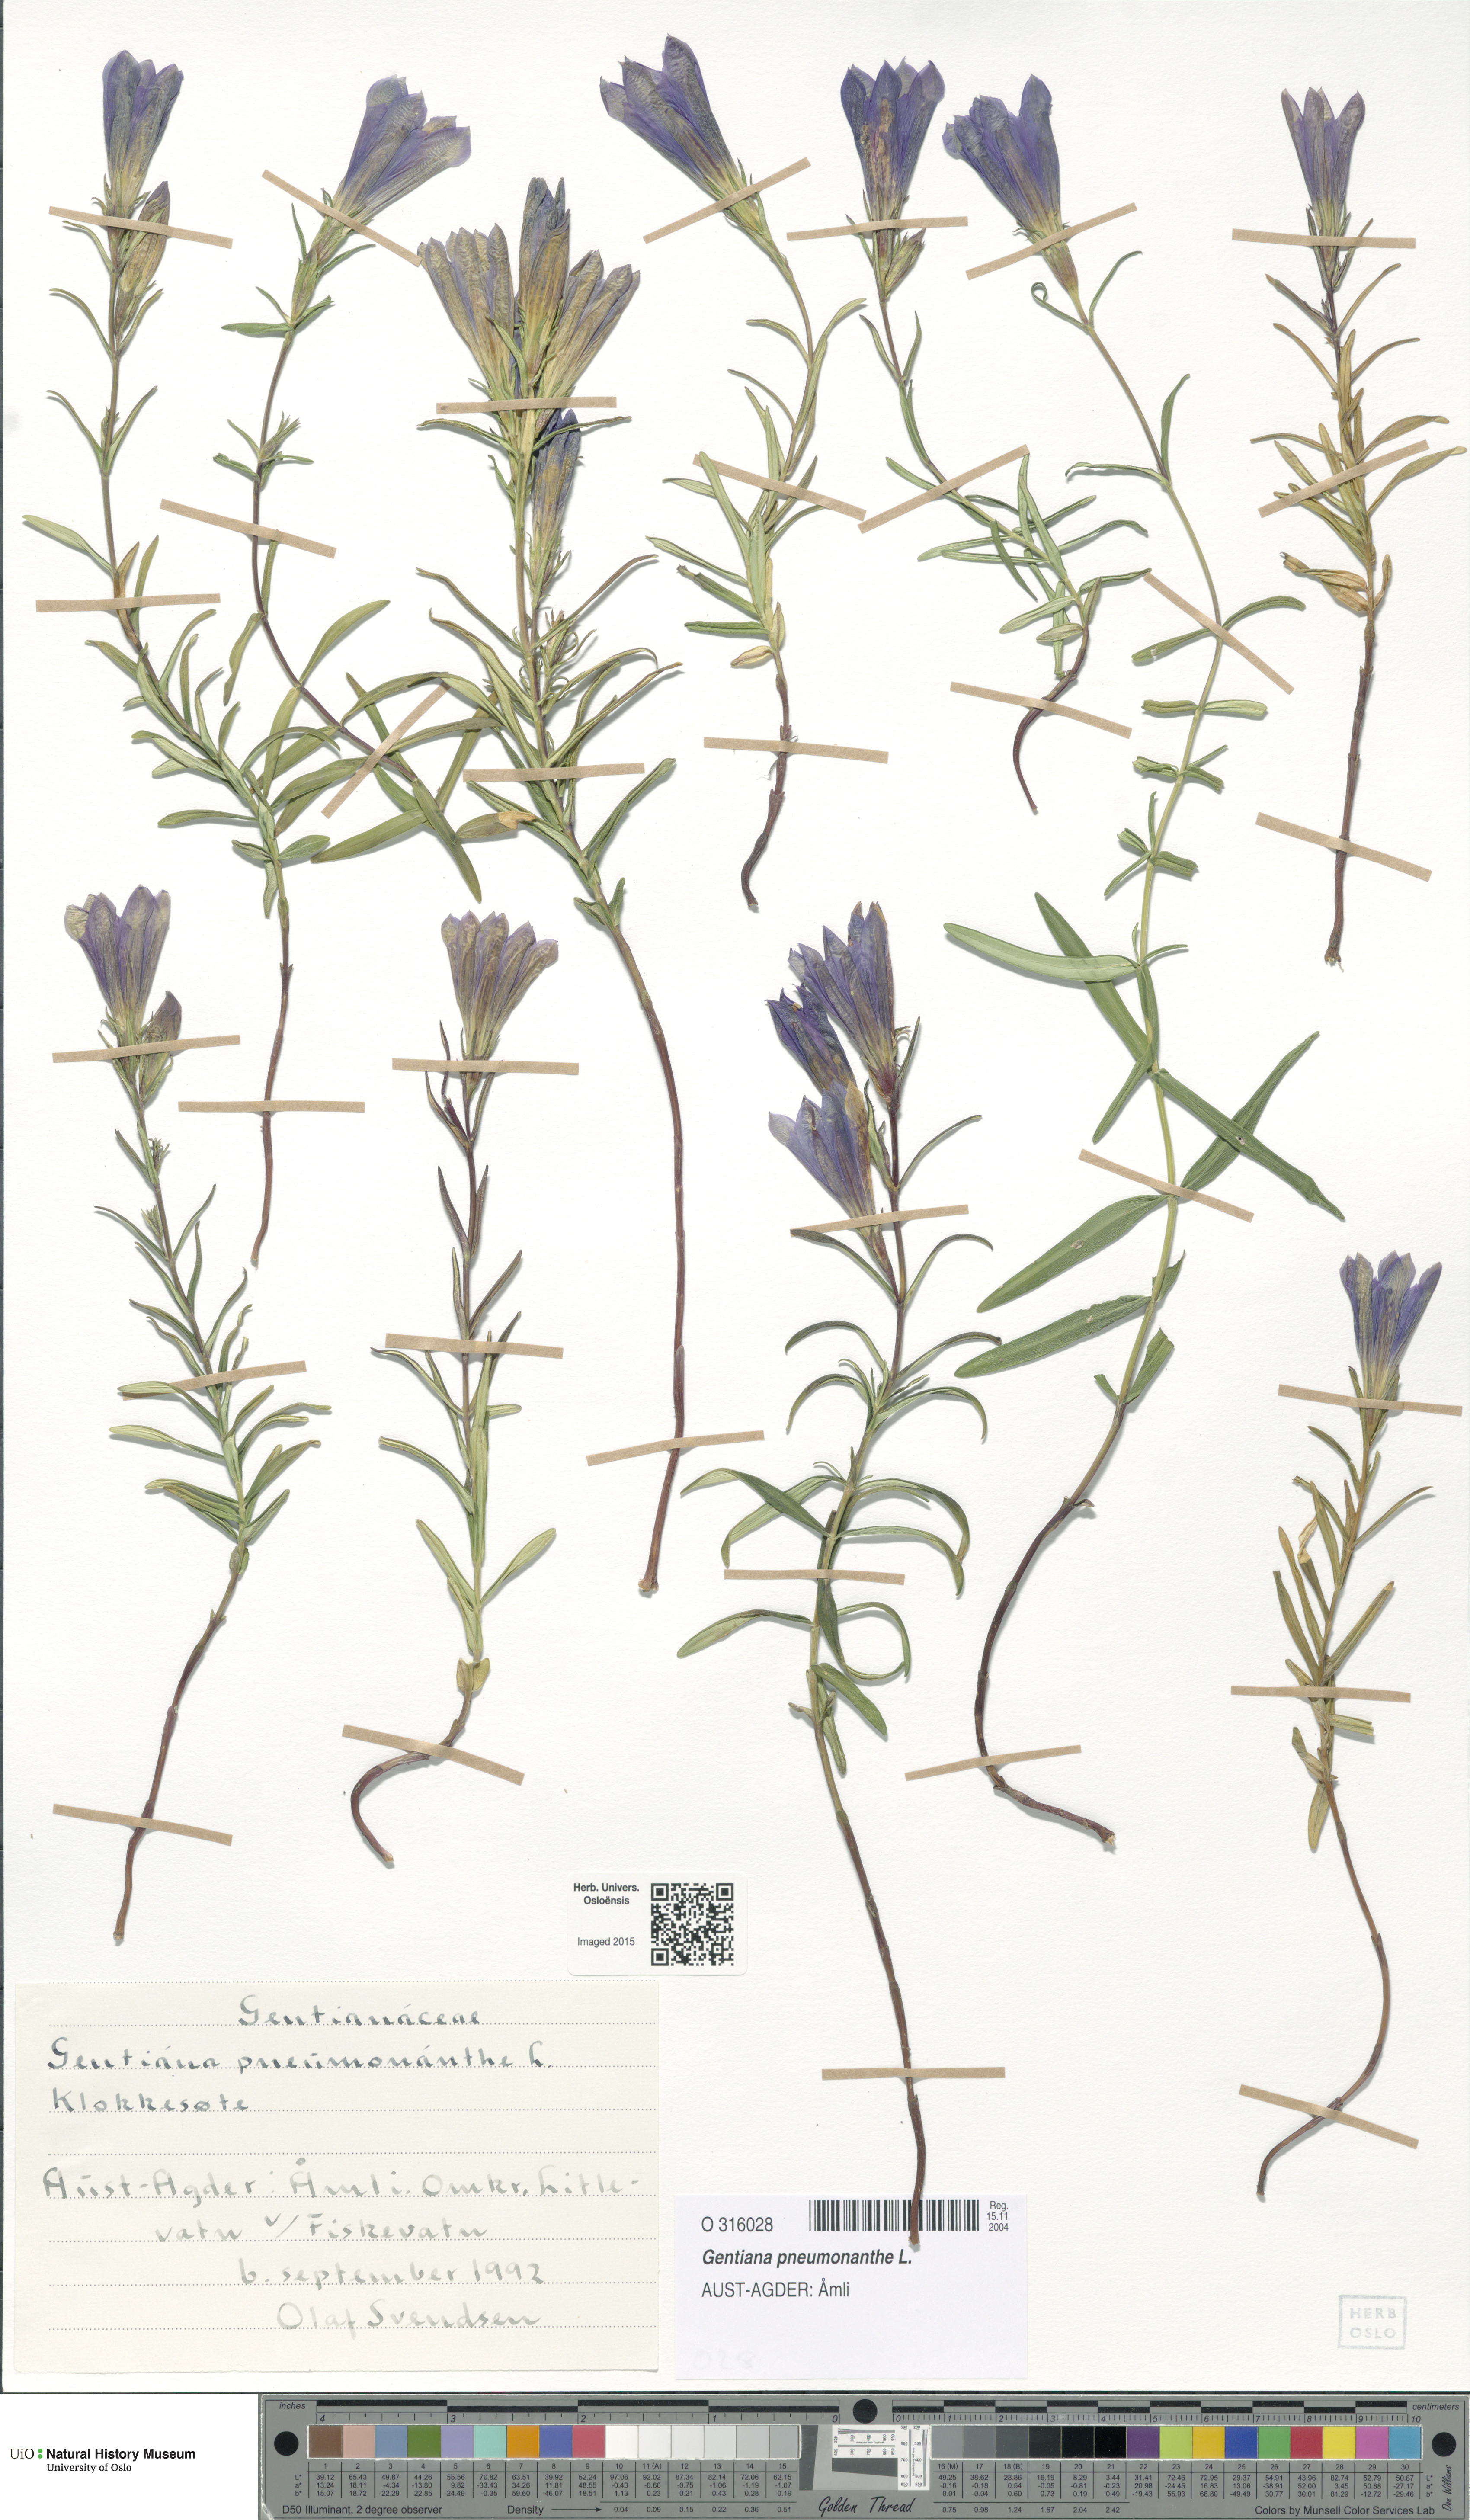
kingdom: Plantae
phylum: Tracheophyta
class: Magnoliopsida
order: Gentianales
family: Gentianaceae
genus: Gentiana
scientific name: Gentiana pneumonanthe
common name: Marsh gentian
